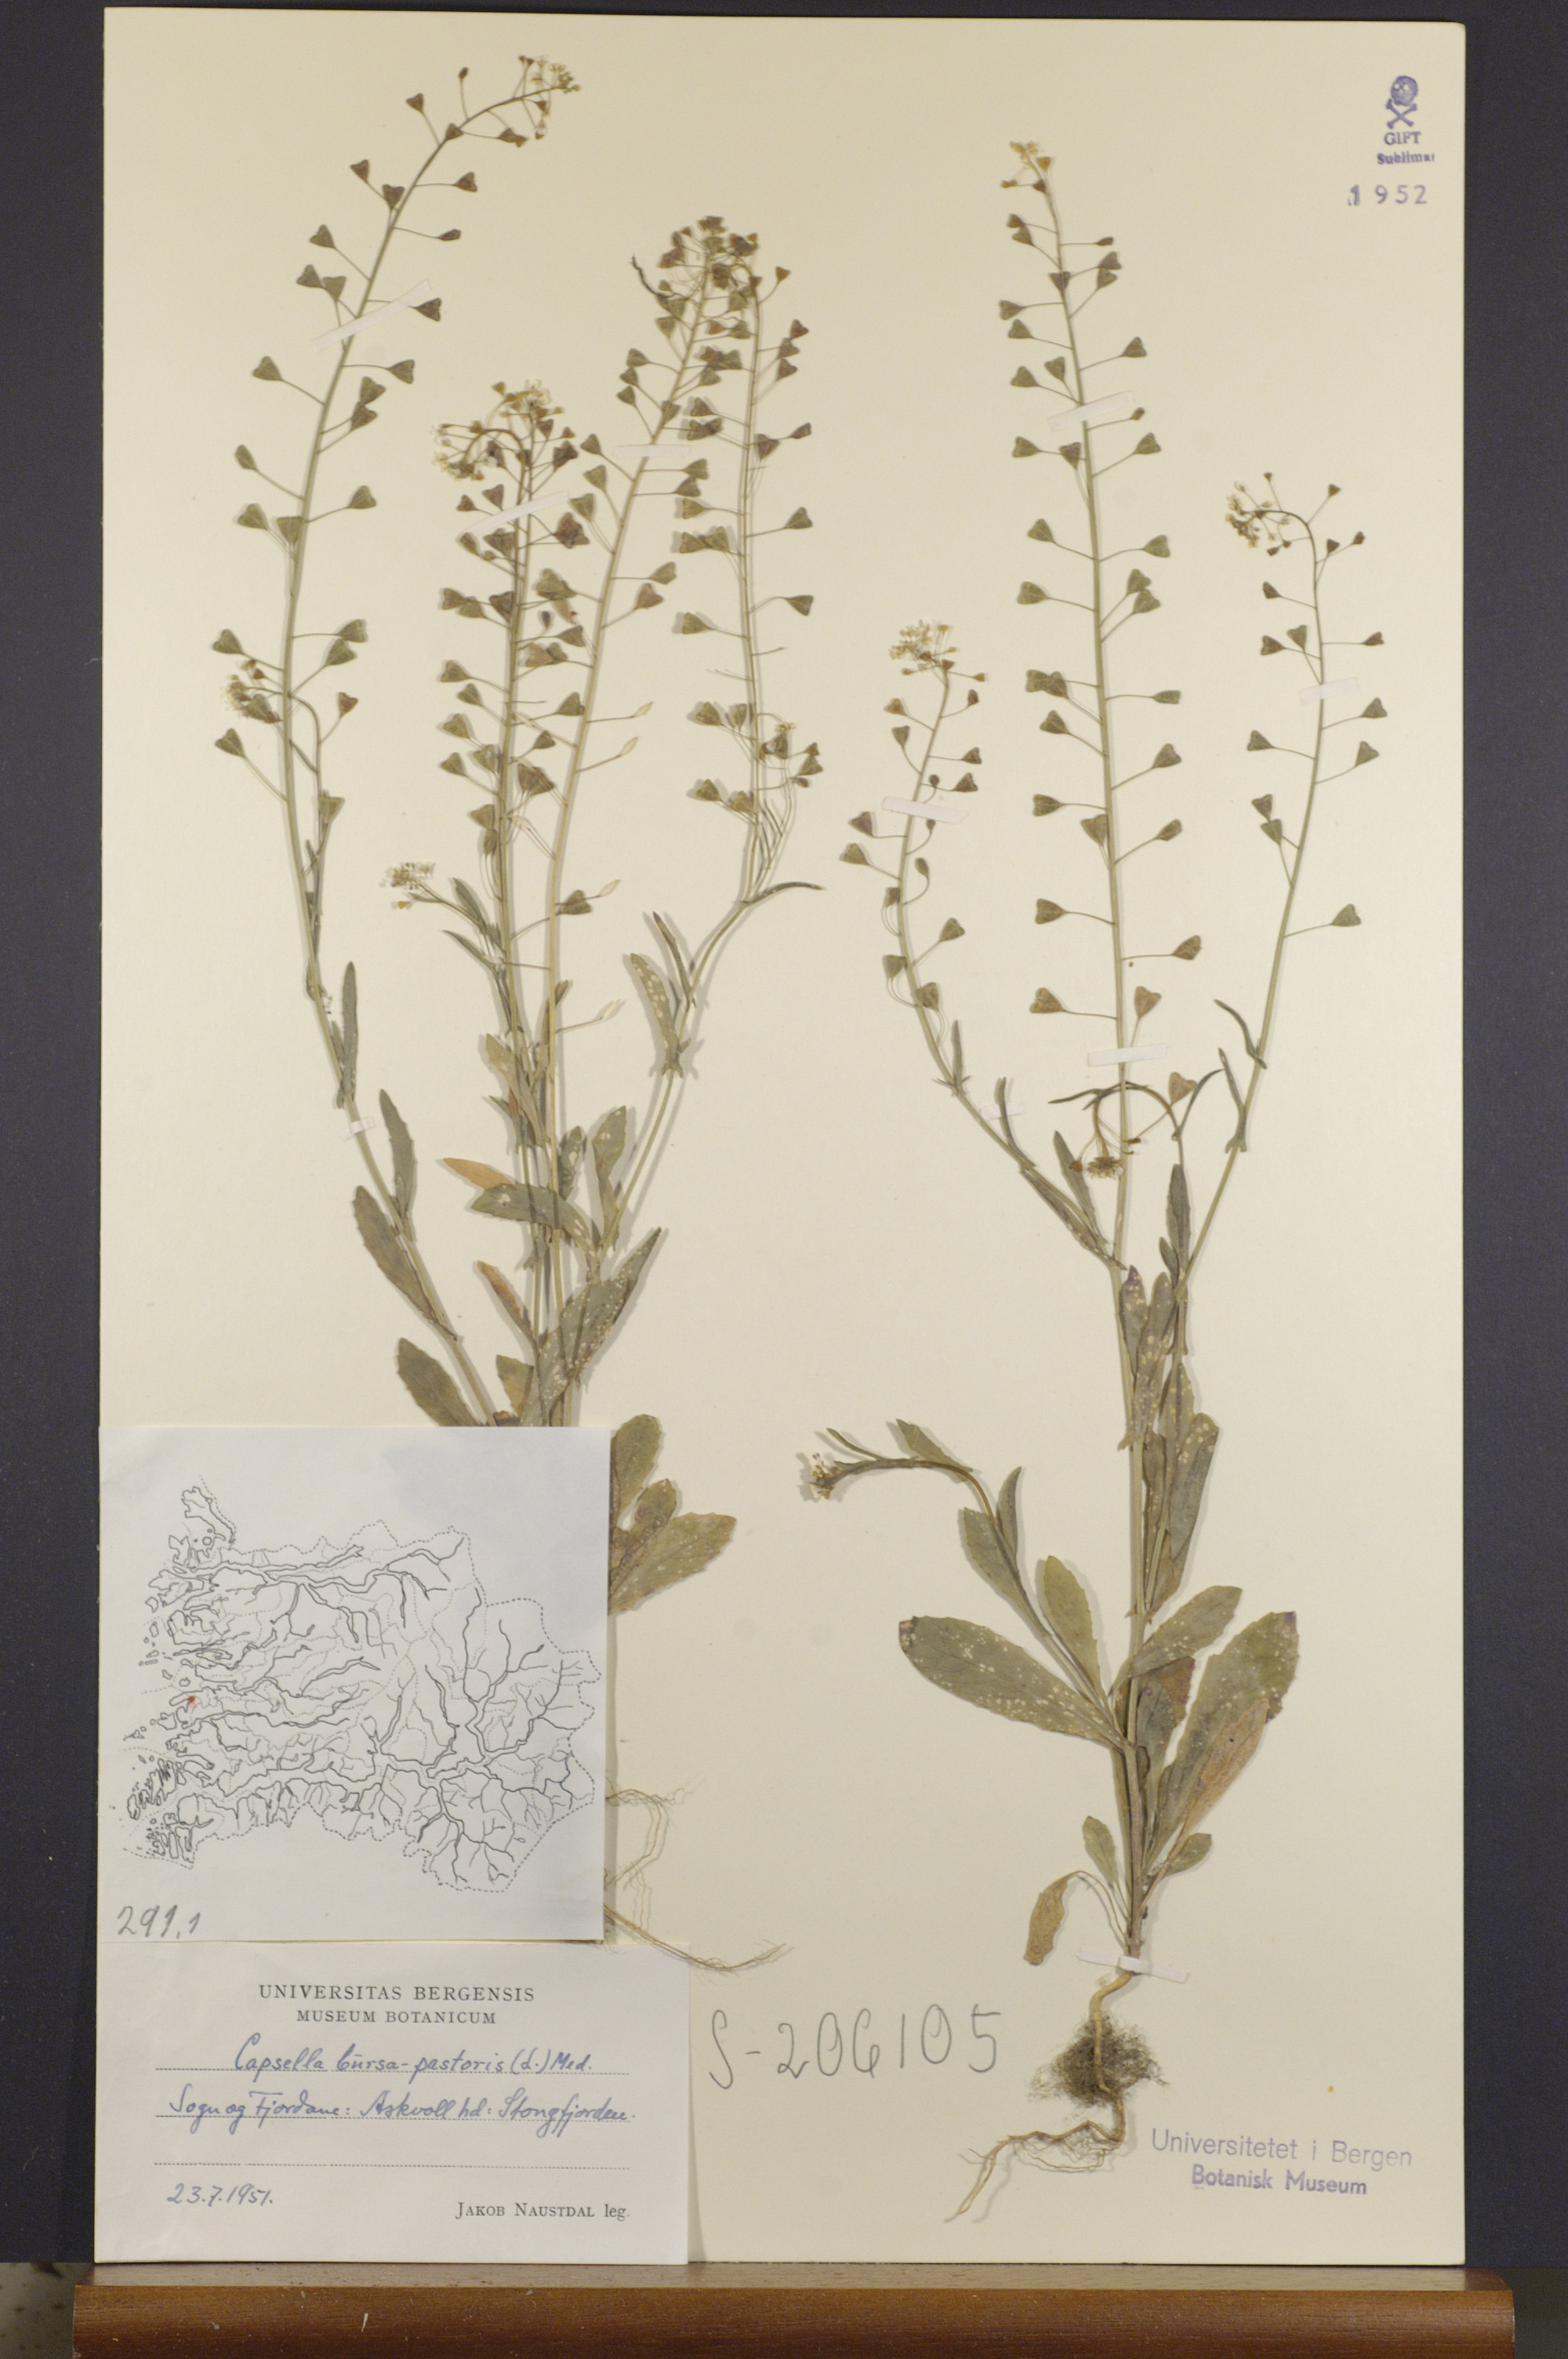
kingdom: Plantae
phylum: Tracheophyta
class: Magnoliopsida
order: Brassicales
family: Brassicaceae
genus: Capsella
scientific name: Capsella bursa-pastoris
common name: Shepherd's purse
